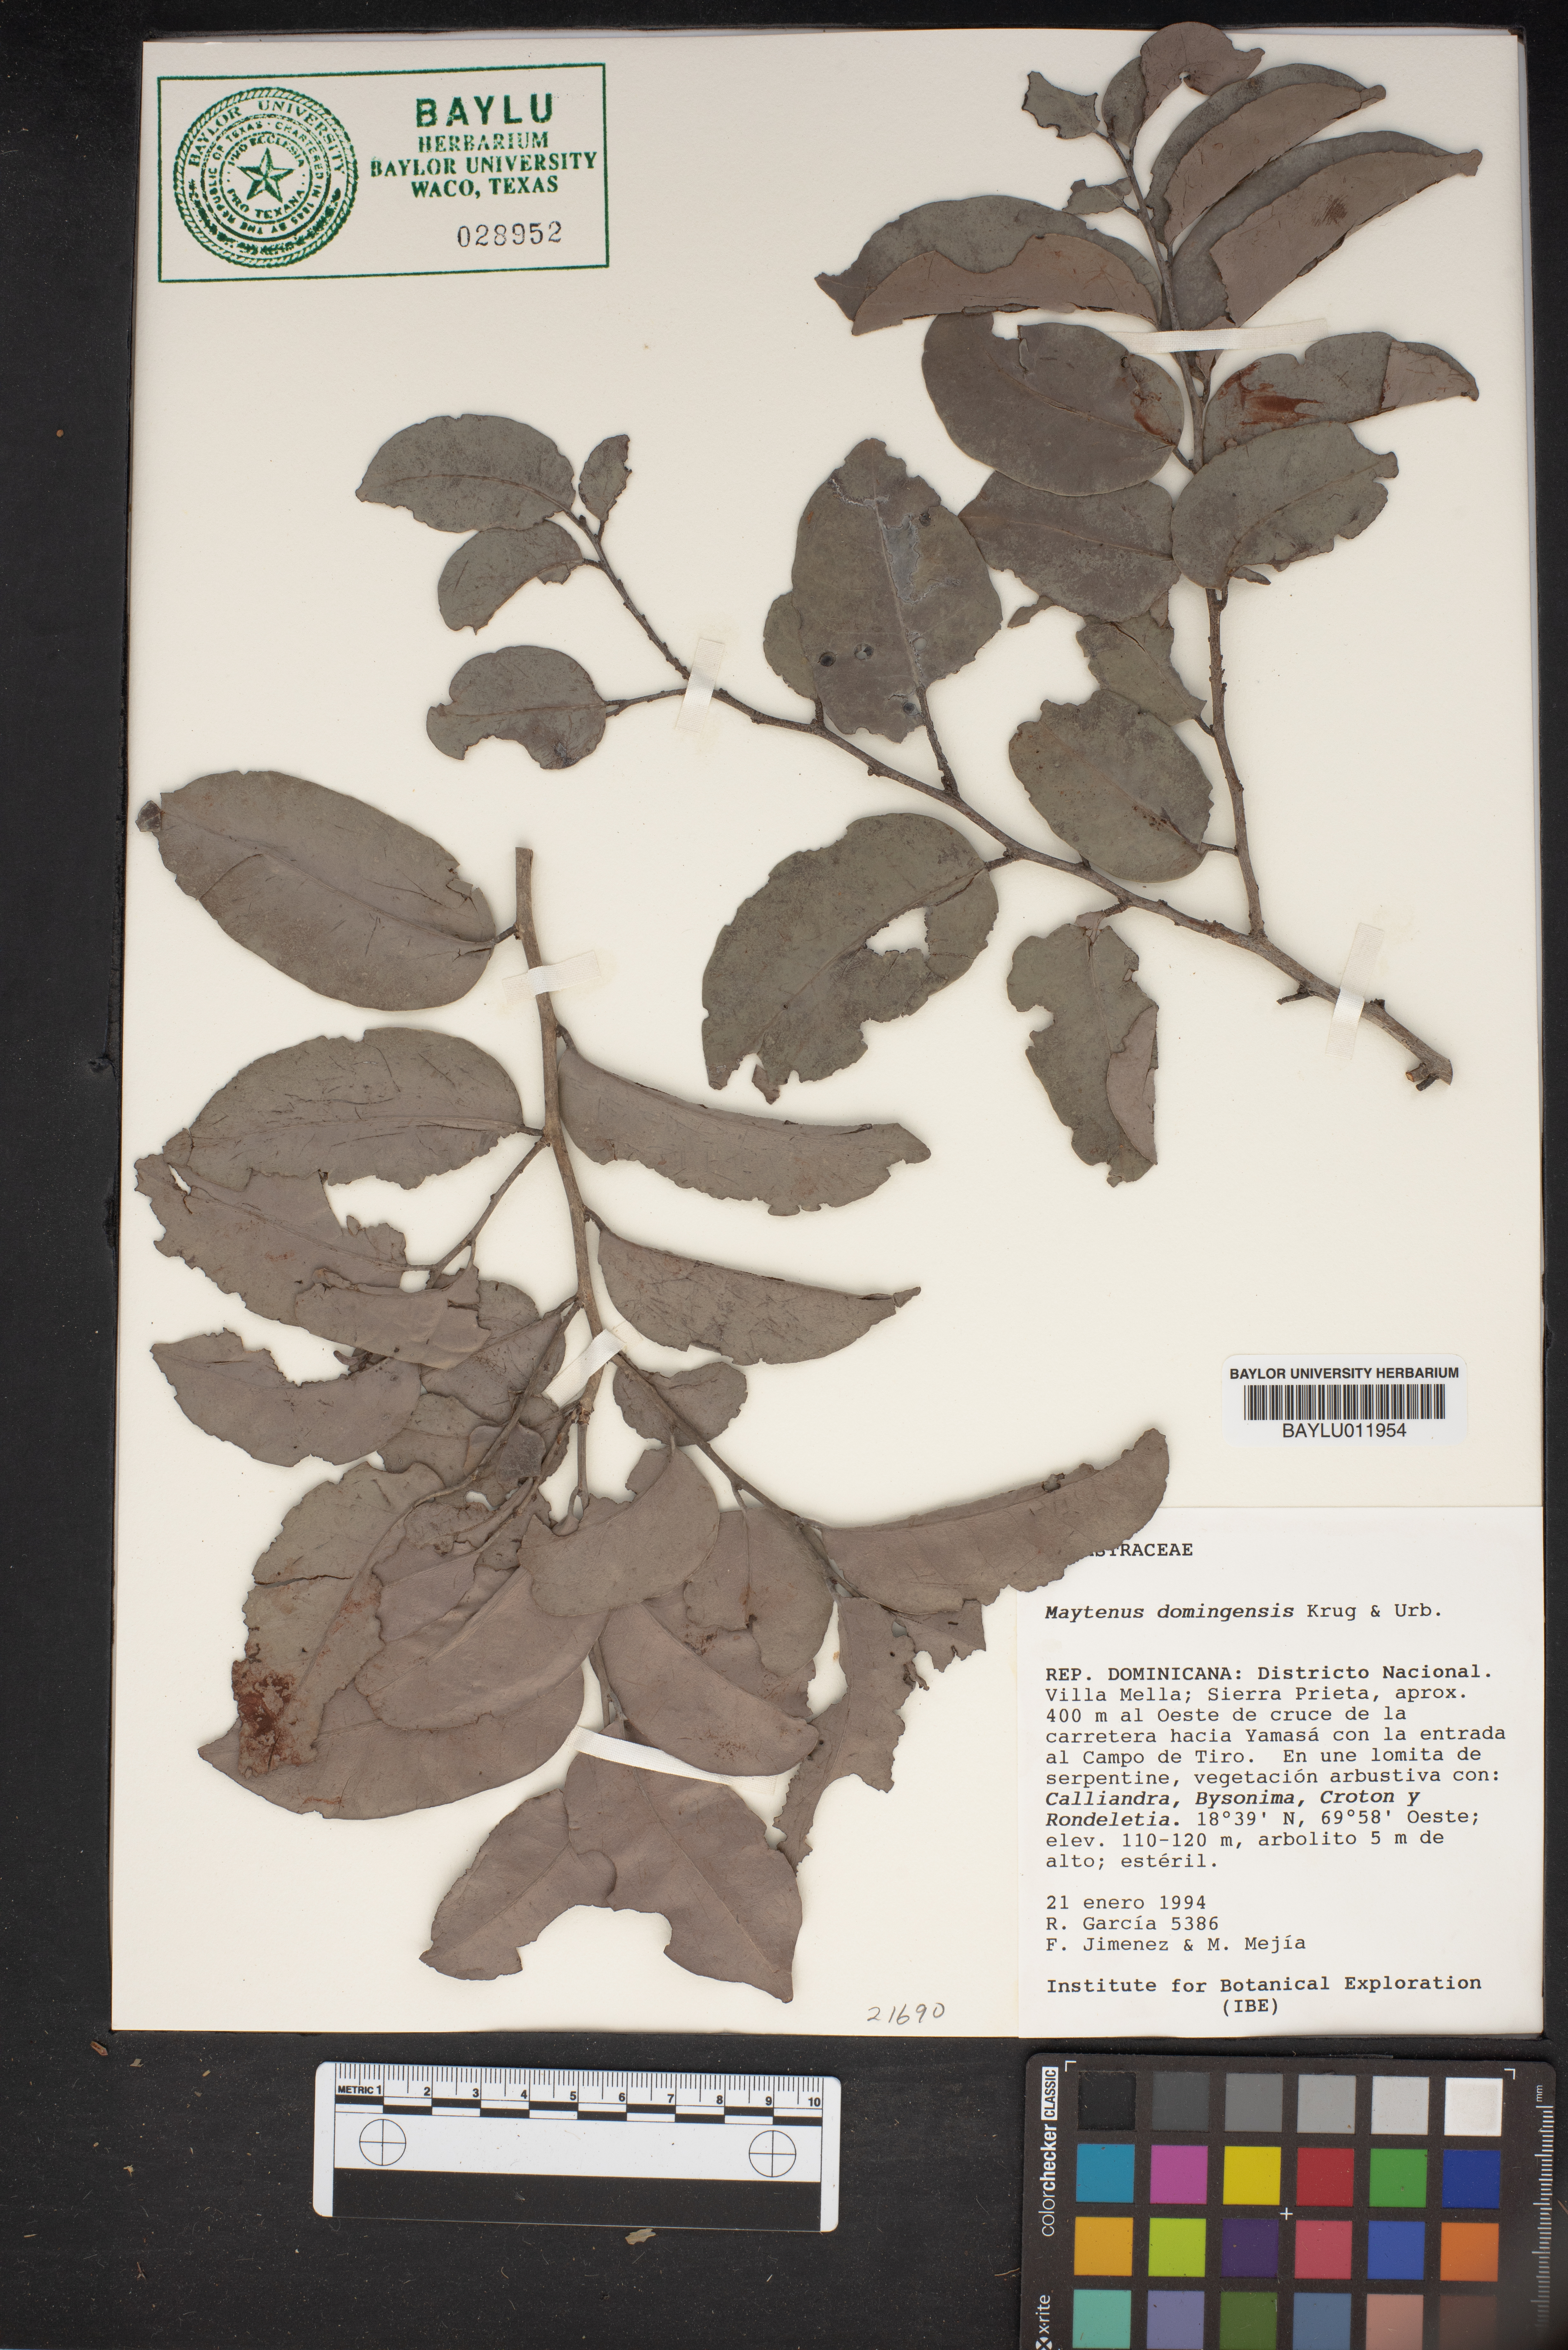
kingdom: Plantae
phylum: Tracheophyta
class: Magnoliopsida
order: Celastrales
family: Celastraceae
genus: Monteverdia
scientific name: Monteverdia domingensis
